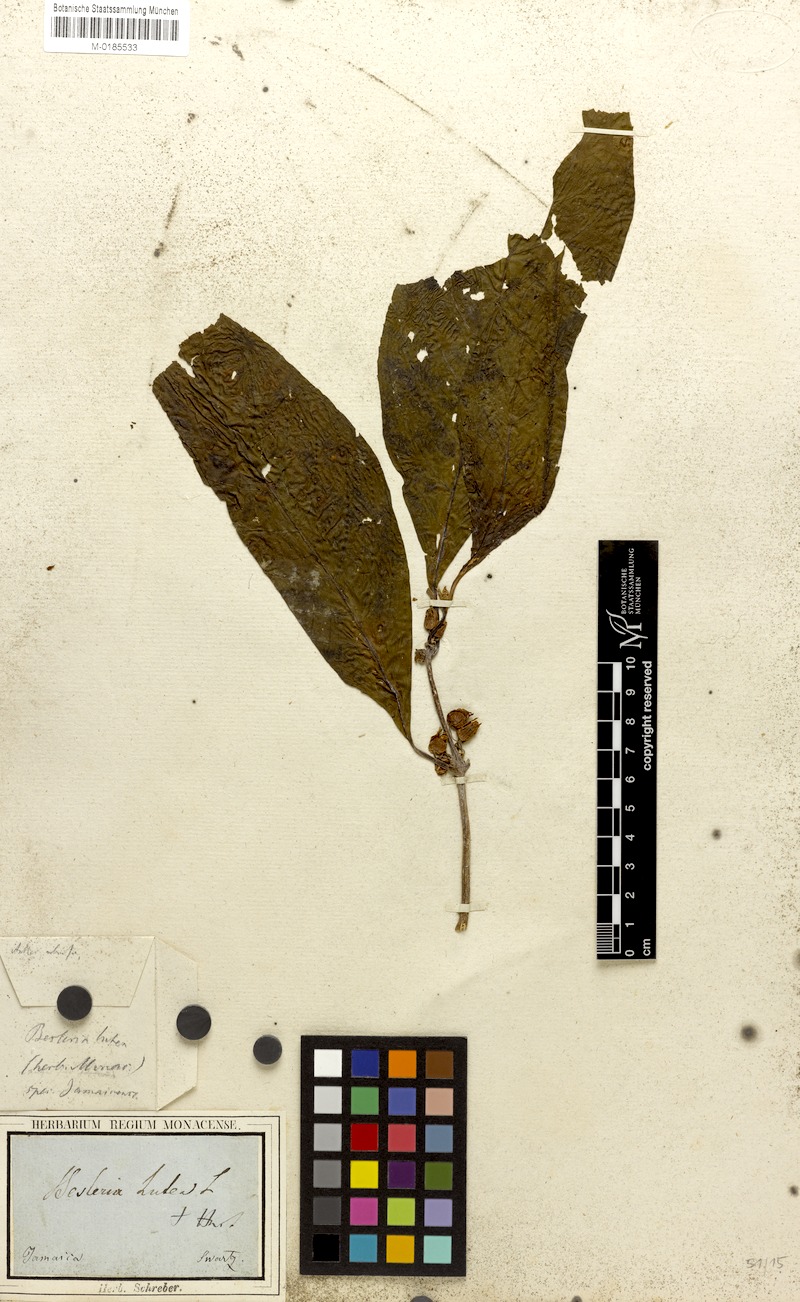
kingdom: Plantae
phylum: Tracheophyta
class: Magnoliopsida
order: Lamiales
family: Gesneriaceae
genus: Besleria
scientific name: Besleria lutea
